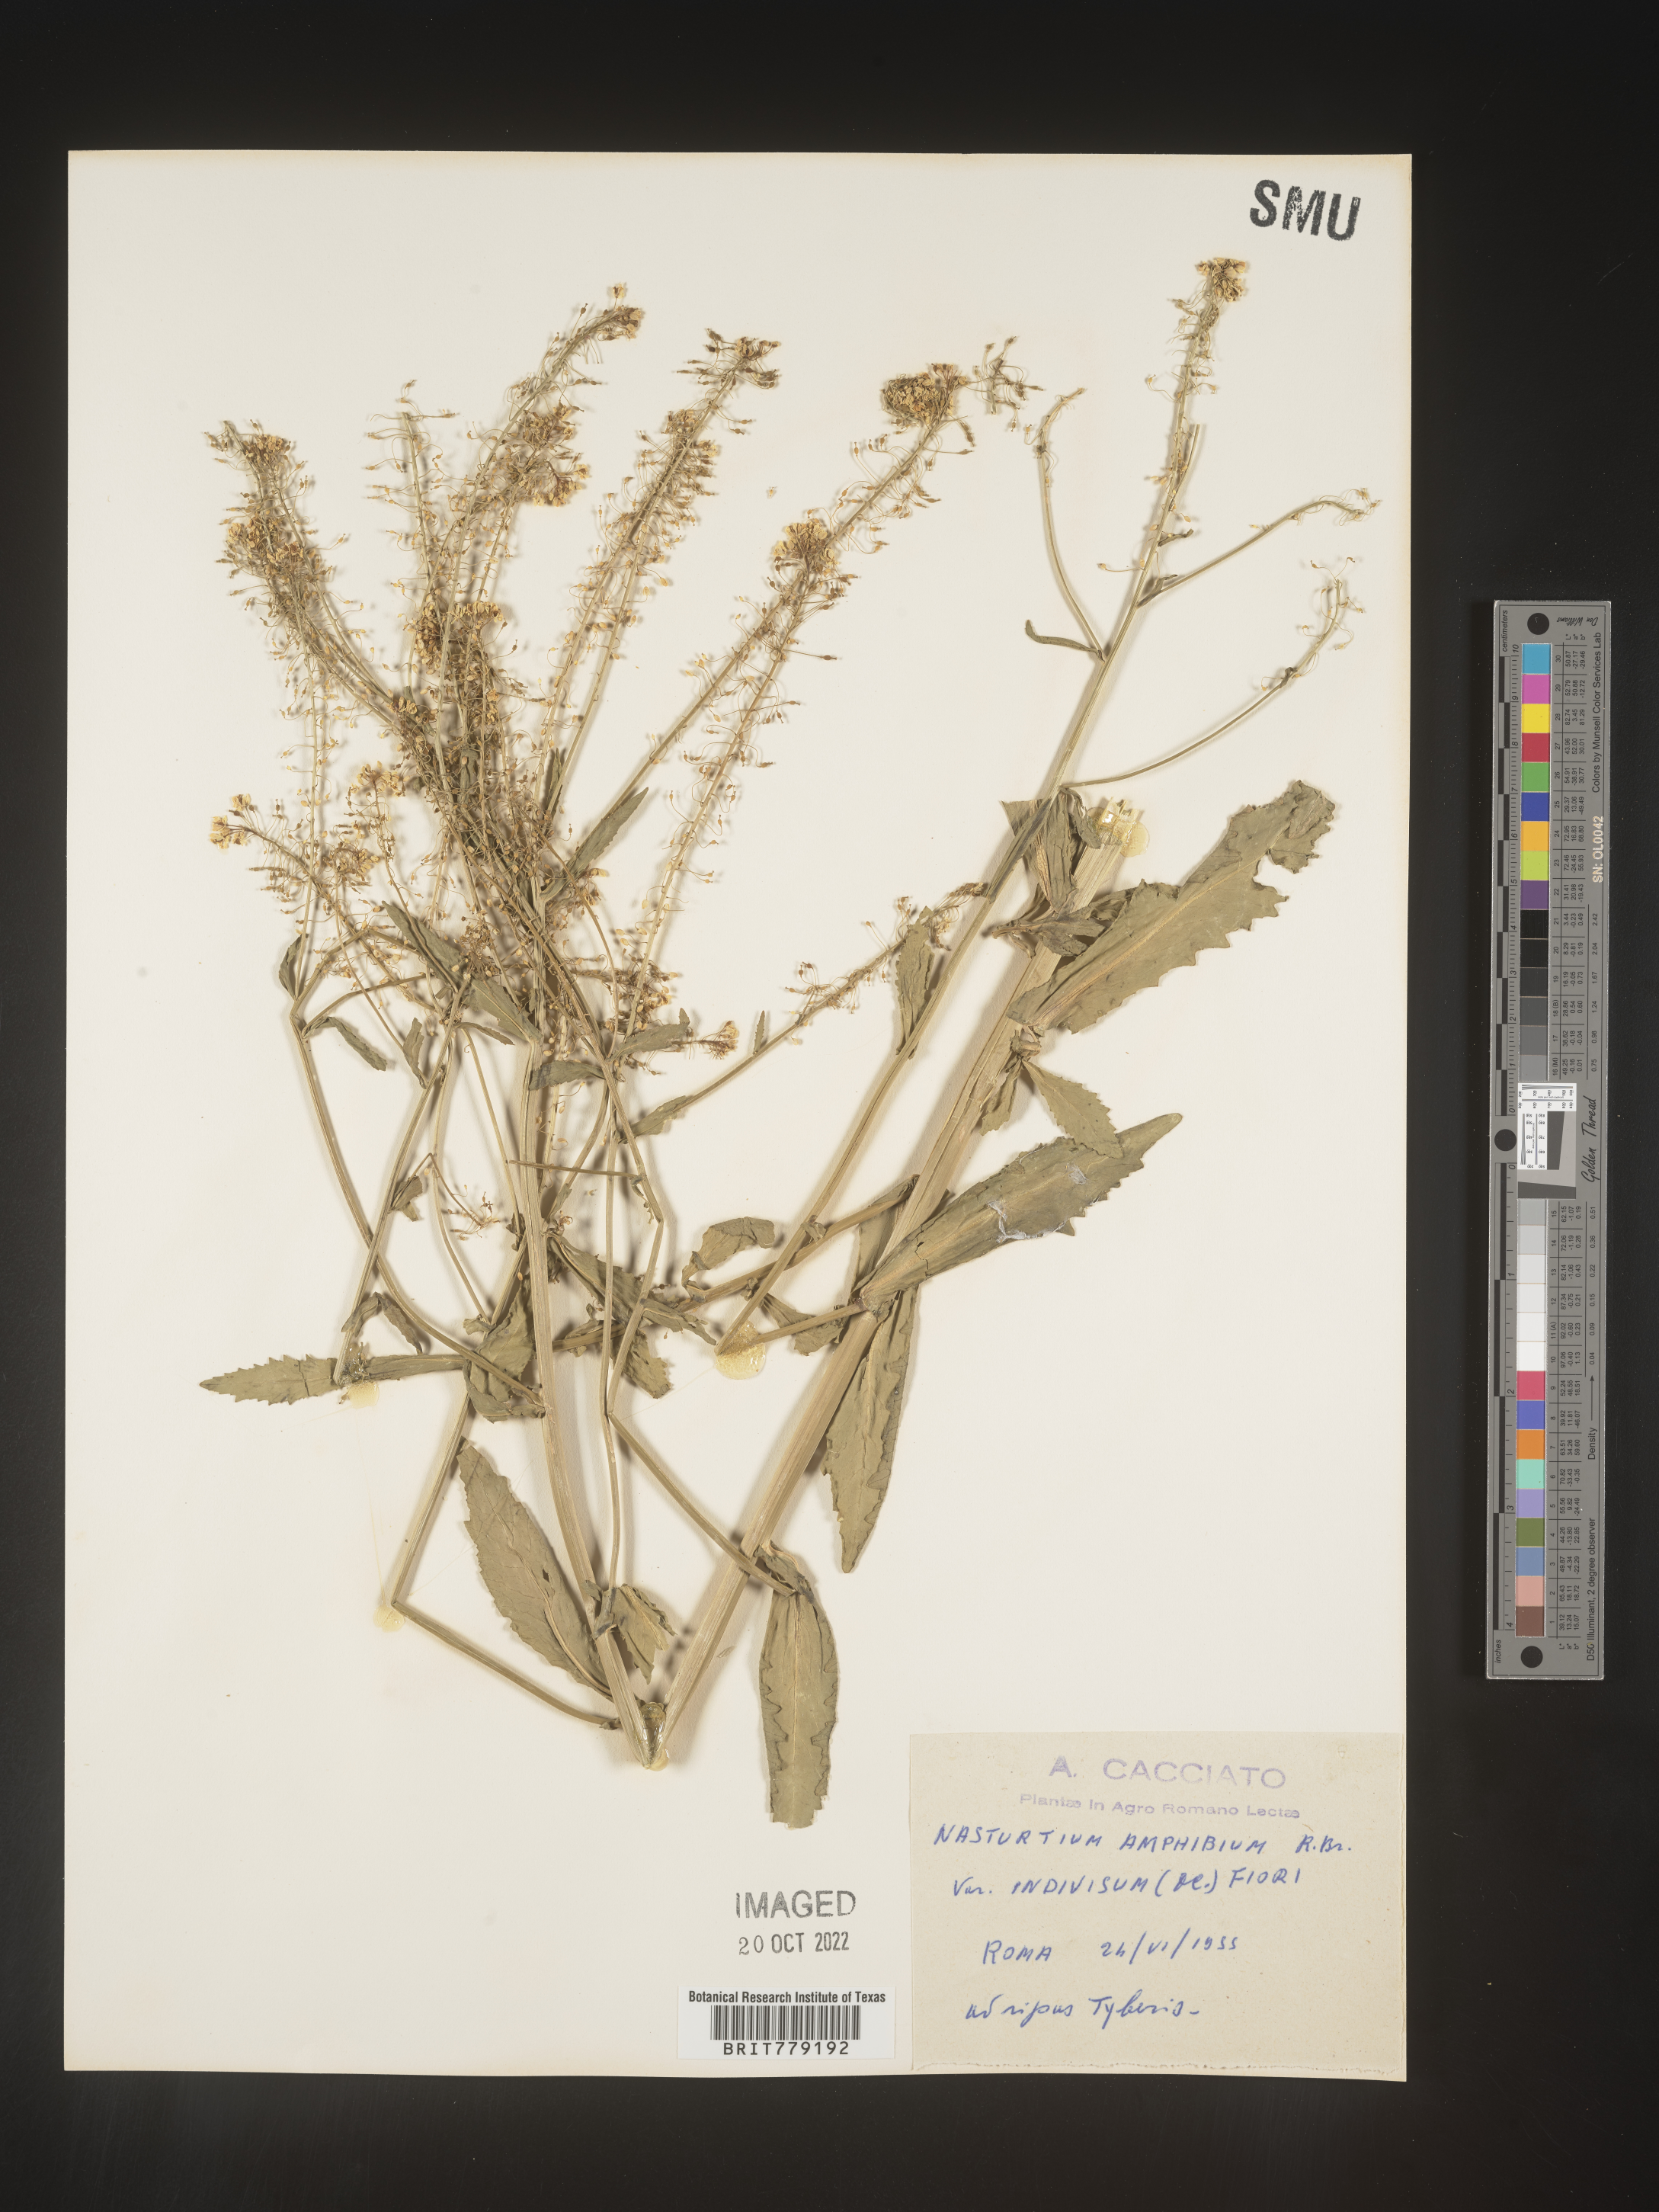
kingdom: Plantae
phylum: Tracheophyta
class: Magnoliopsida
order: Brassicales
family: Brassicaceae
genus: Rorippa
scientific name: Rorippa
